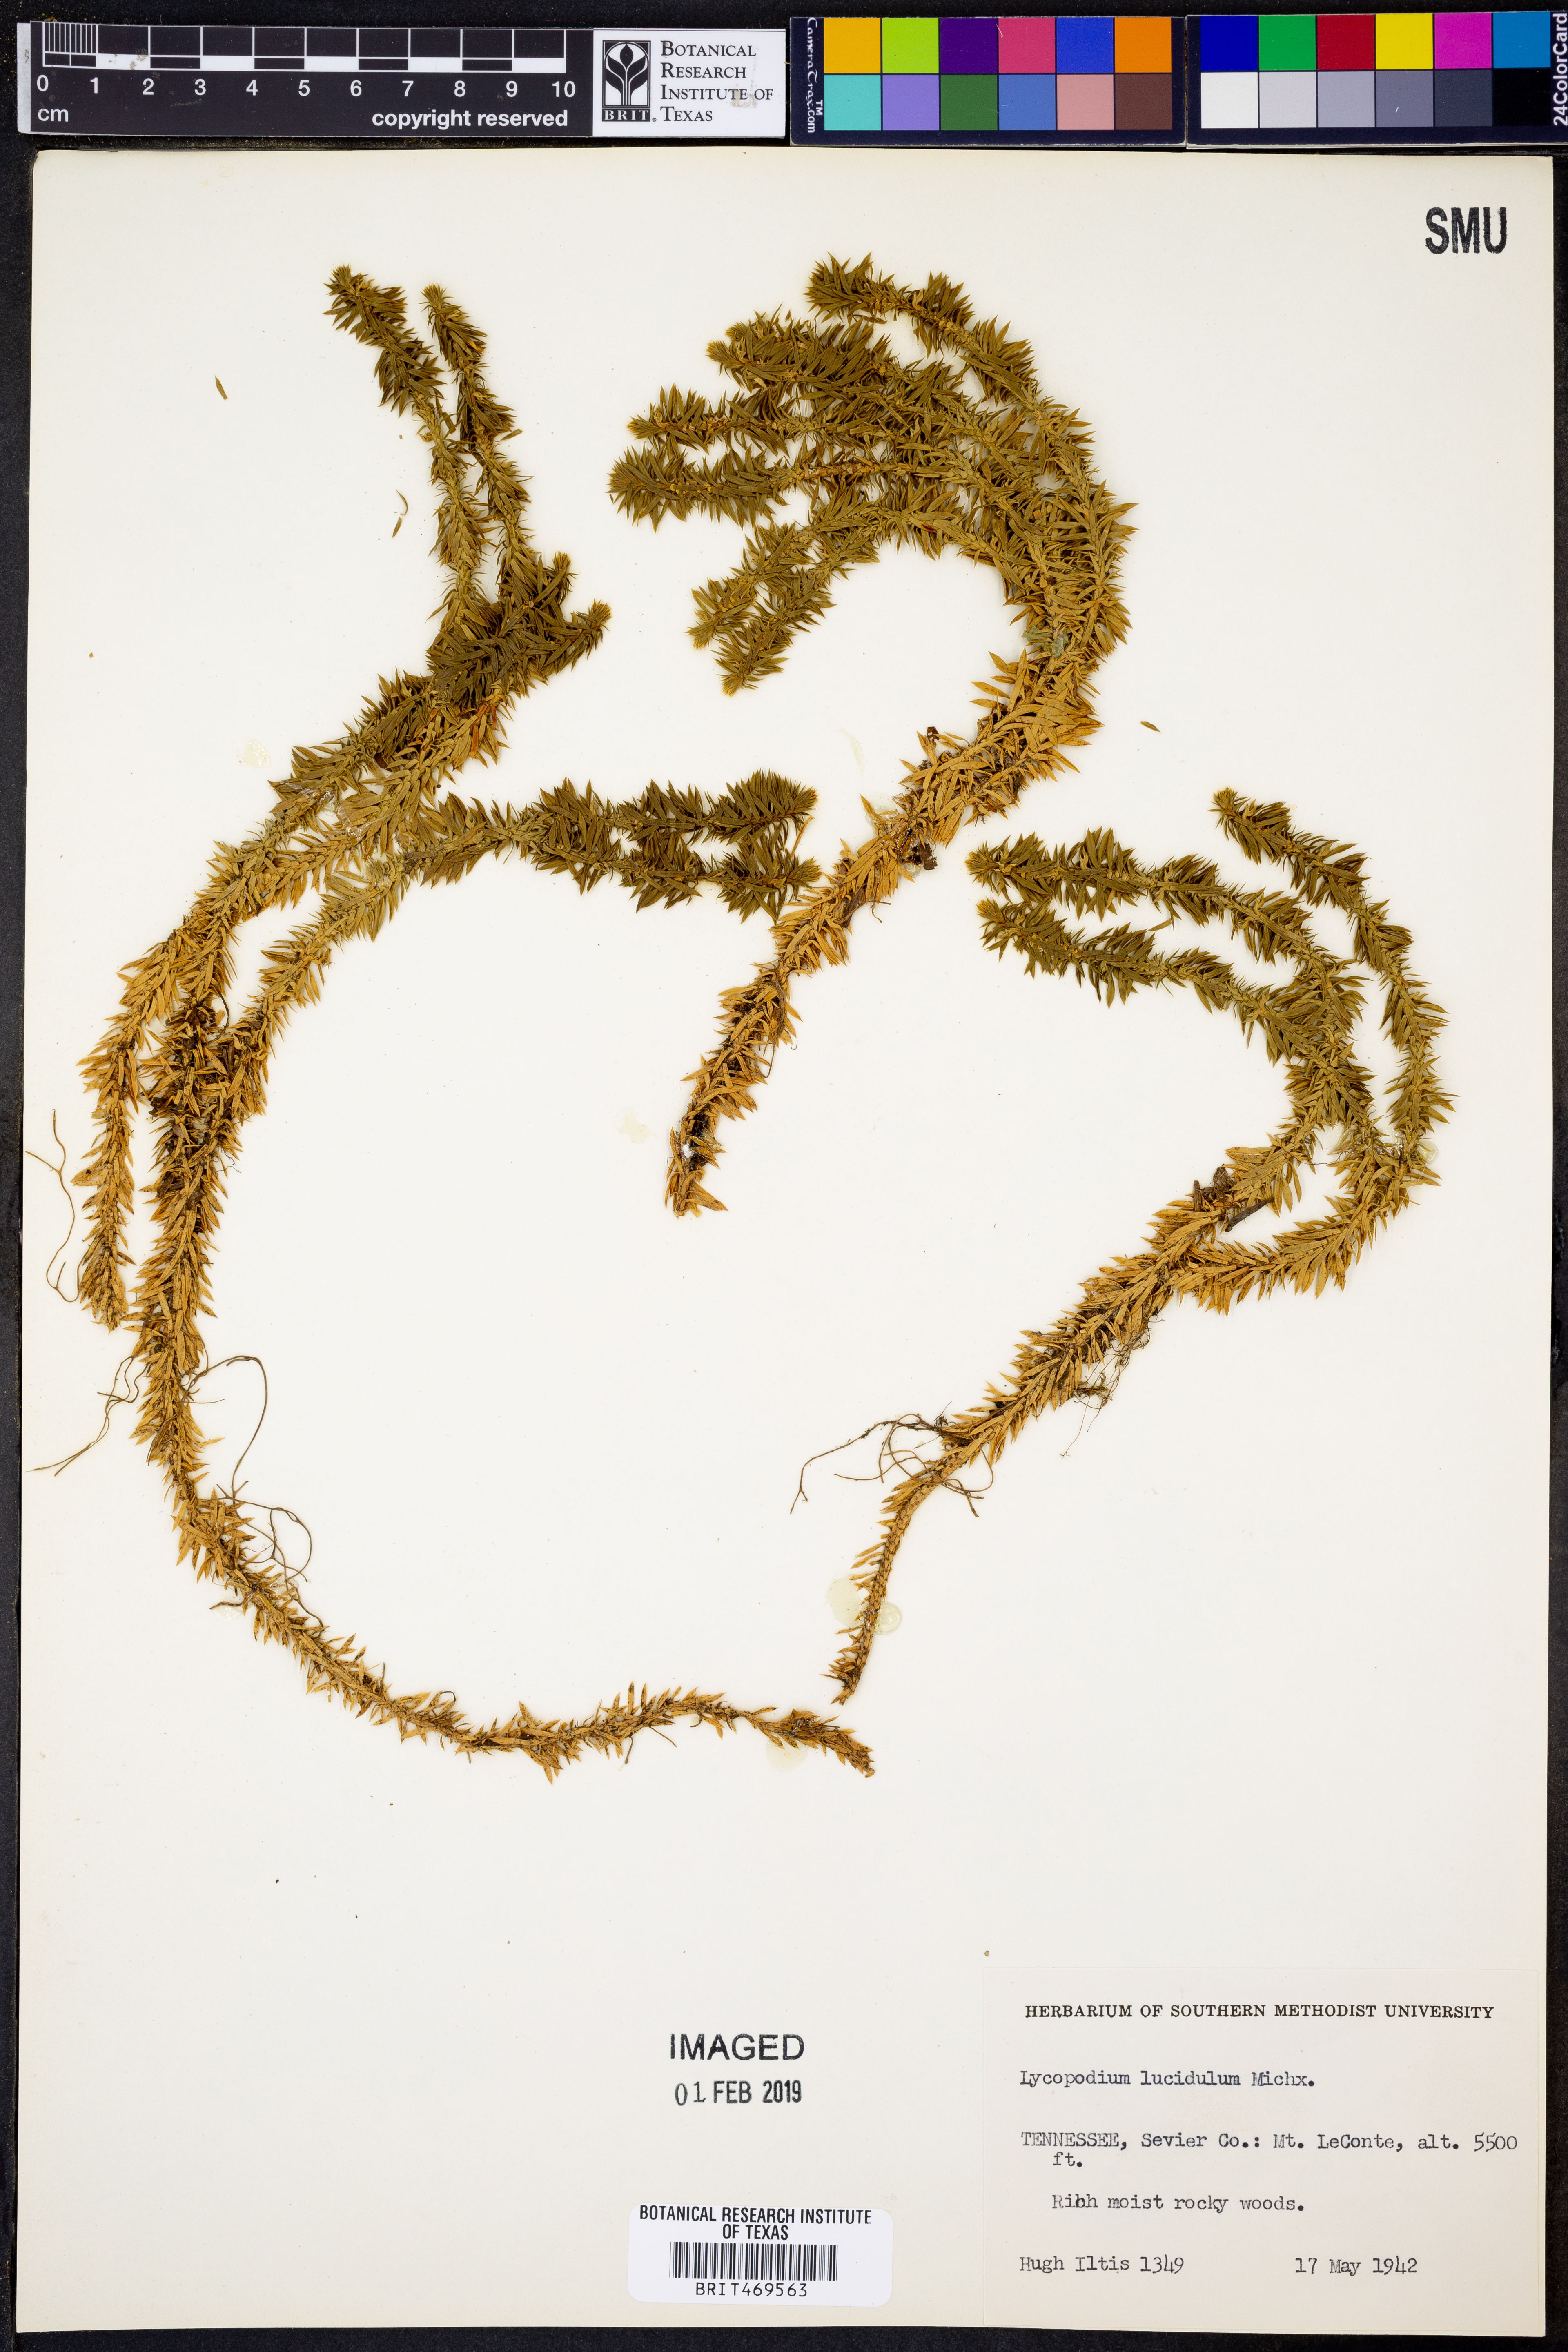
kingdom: Plantae
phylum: Tracheophyta
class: Lycopodiopsida
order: Lycopodiales
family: Lycopodiaceae
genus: Huperzia
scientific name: Huperzia lucidula
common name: Shining clubmoss
